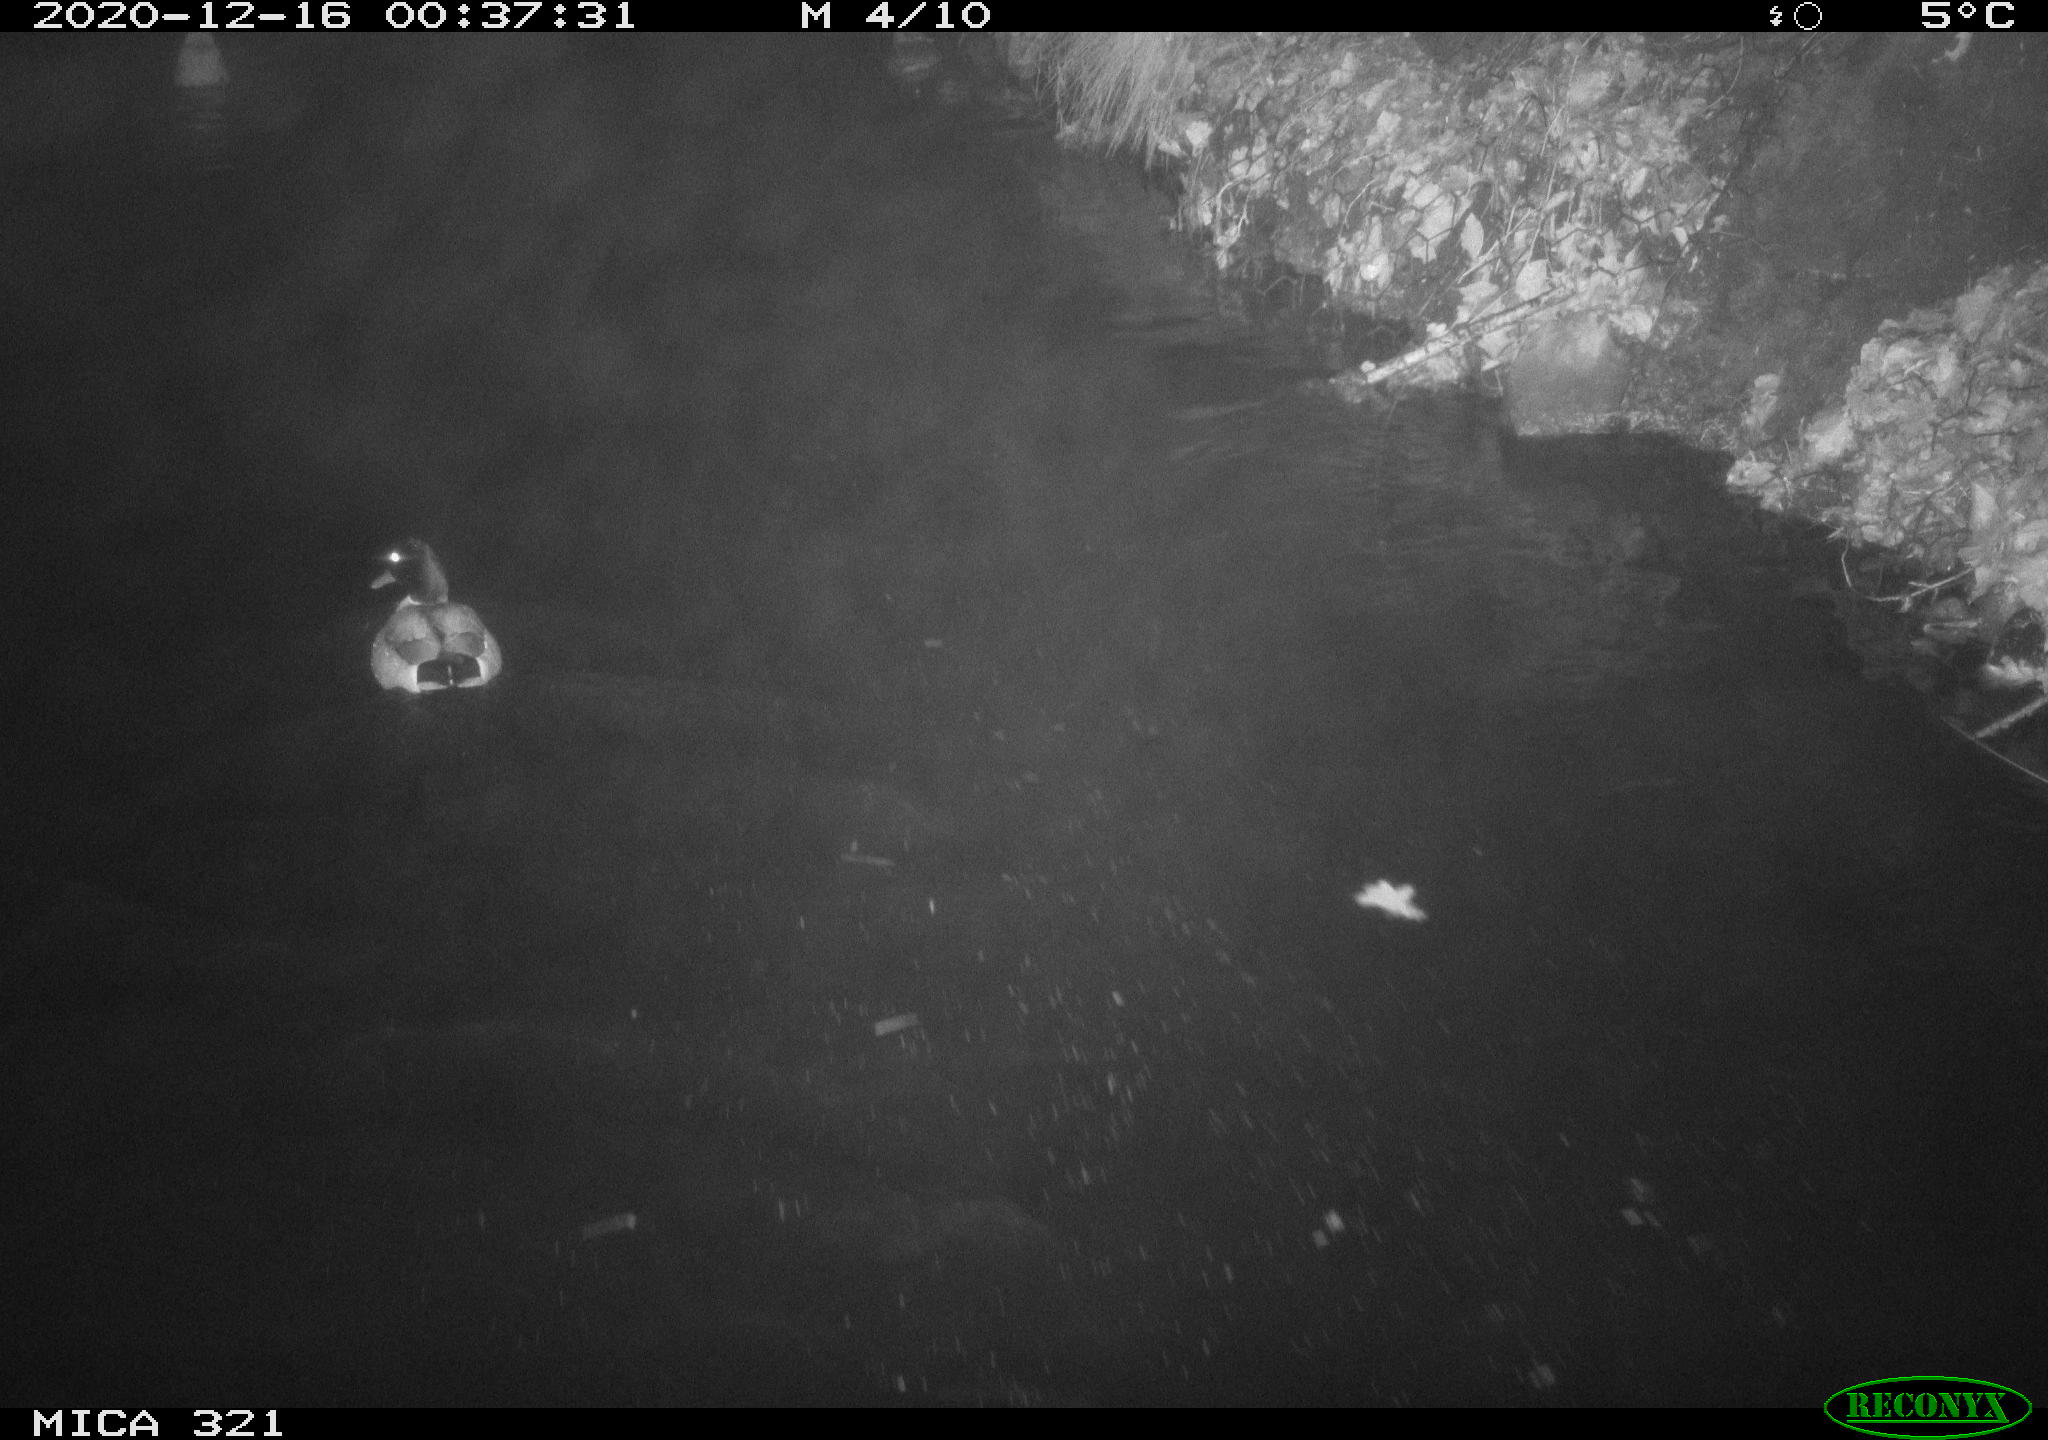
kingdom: Animalia
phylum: Chordata
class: Aves
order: Anseriformes
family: Anatidae
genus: Anas
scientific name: Anas platyrhynchos
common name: Mallard
